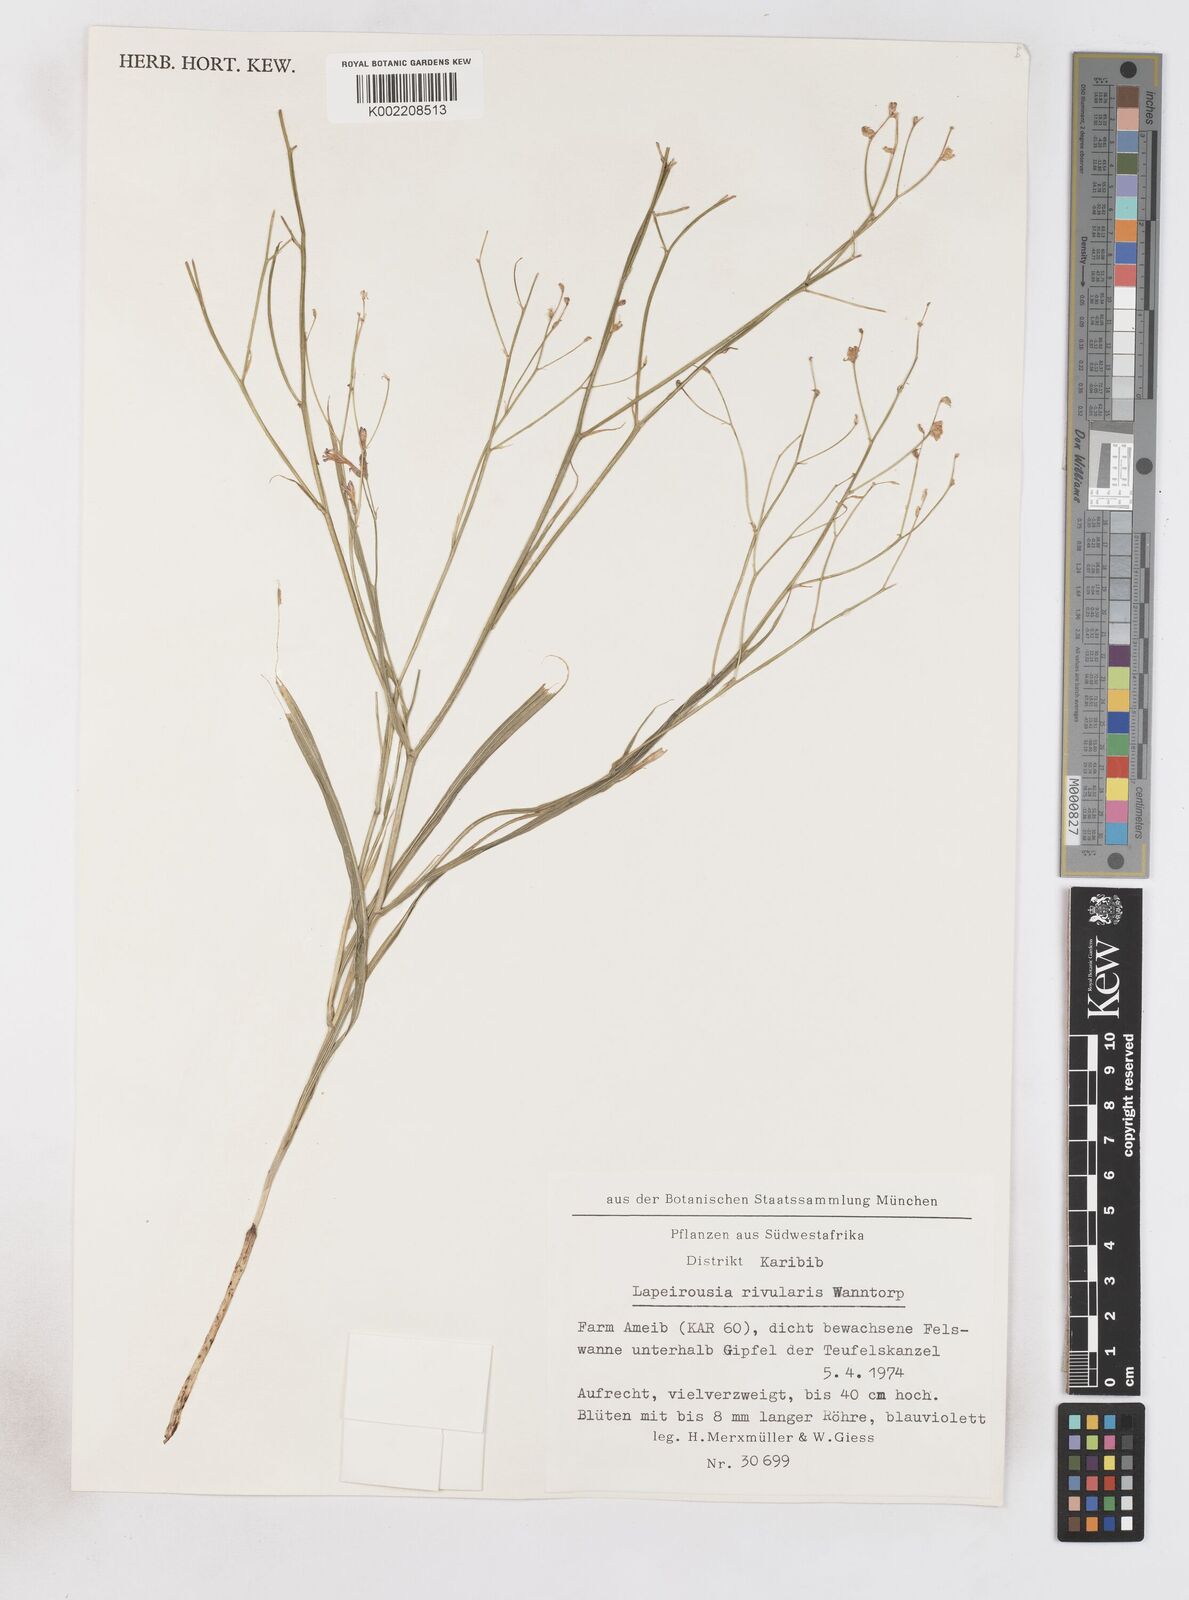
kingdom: Plantae
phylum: Tracheophyta
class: Liliopsida
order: Asparagales
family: Iridaceae
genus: Afrosolen
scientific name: Afrosolen rivularis
